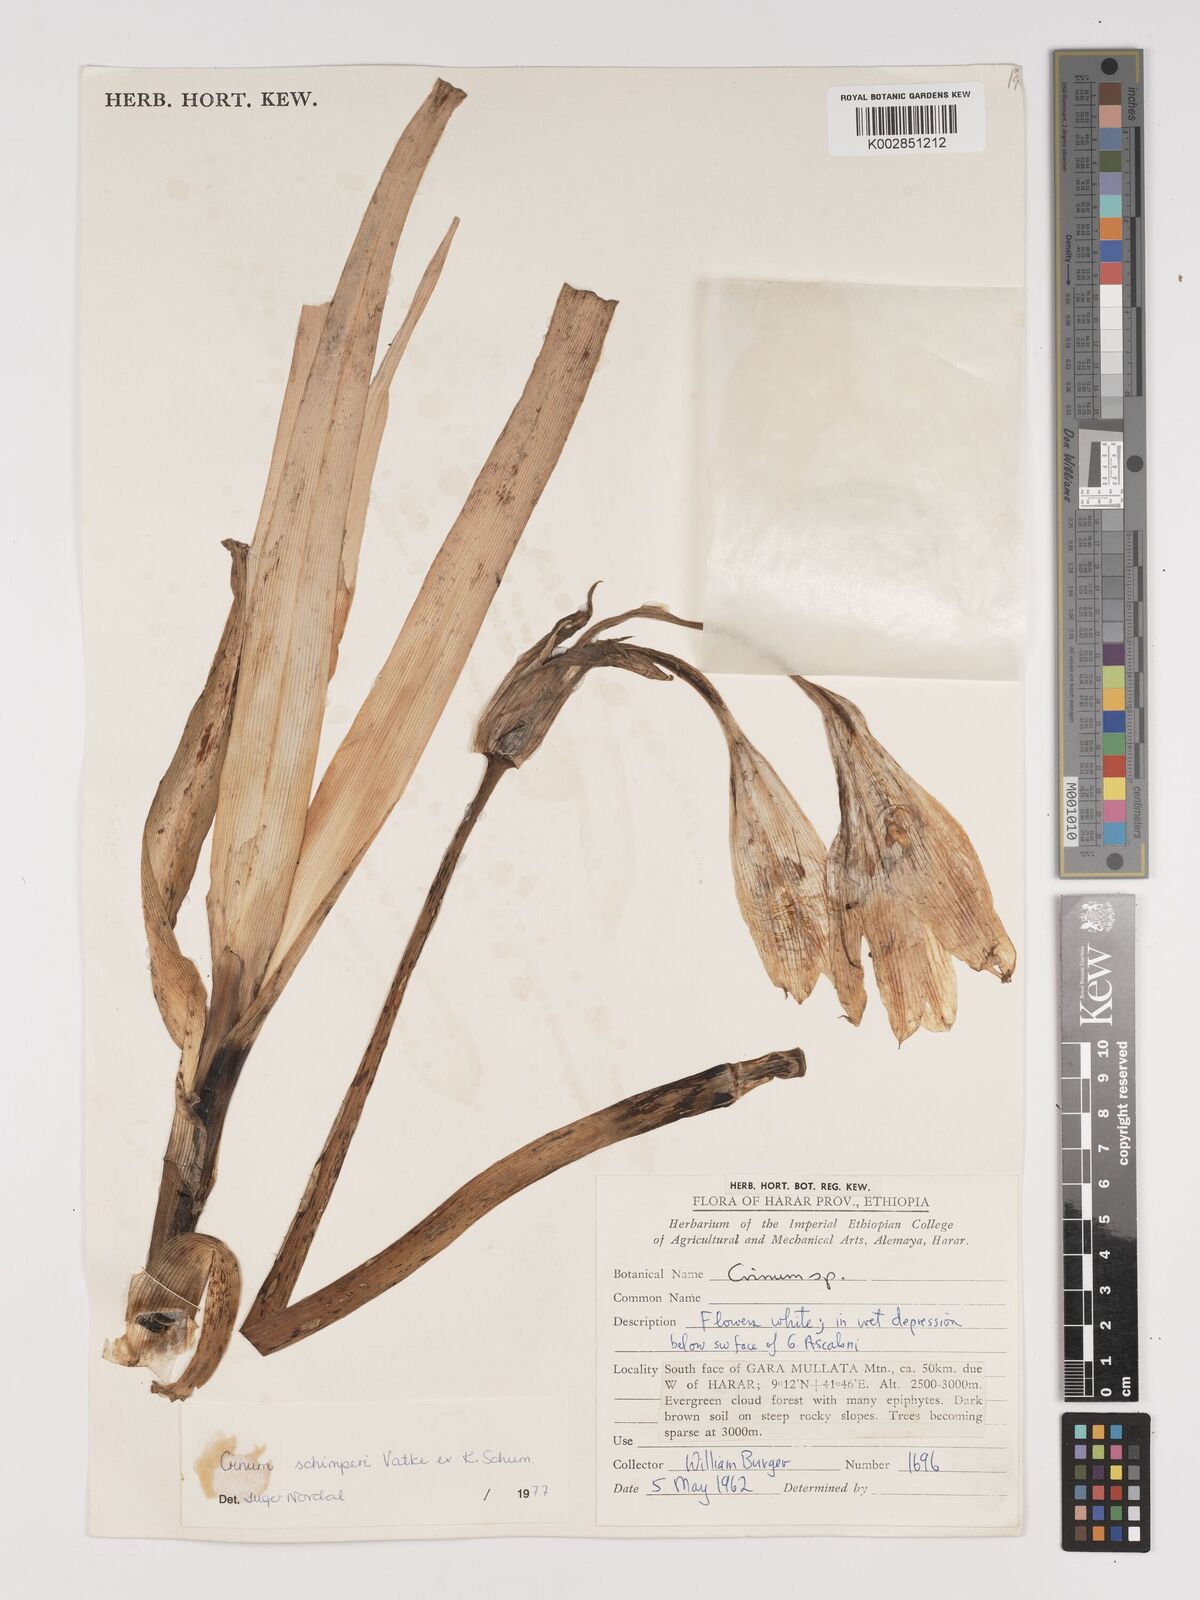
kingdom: Plantae
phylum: Tracheophyta
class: Liliopsida
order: Asparagales
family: Amaryllidaceae
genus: Crinum
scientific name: Crinum abyssinicum
